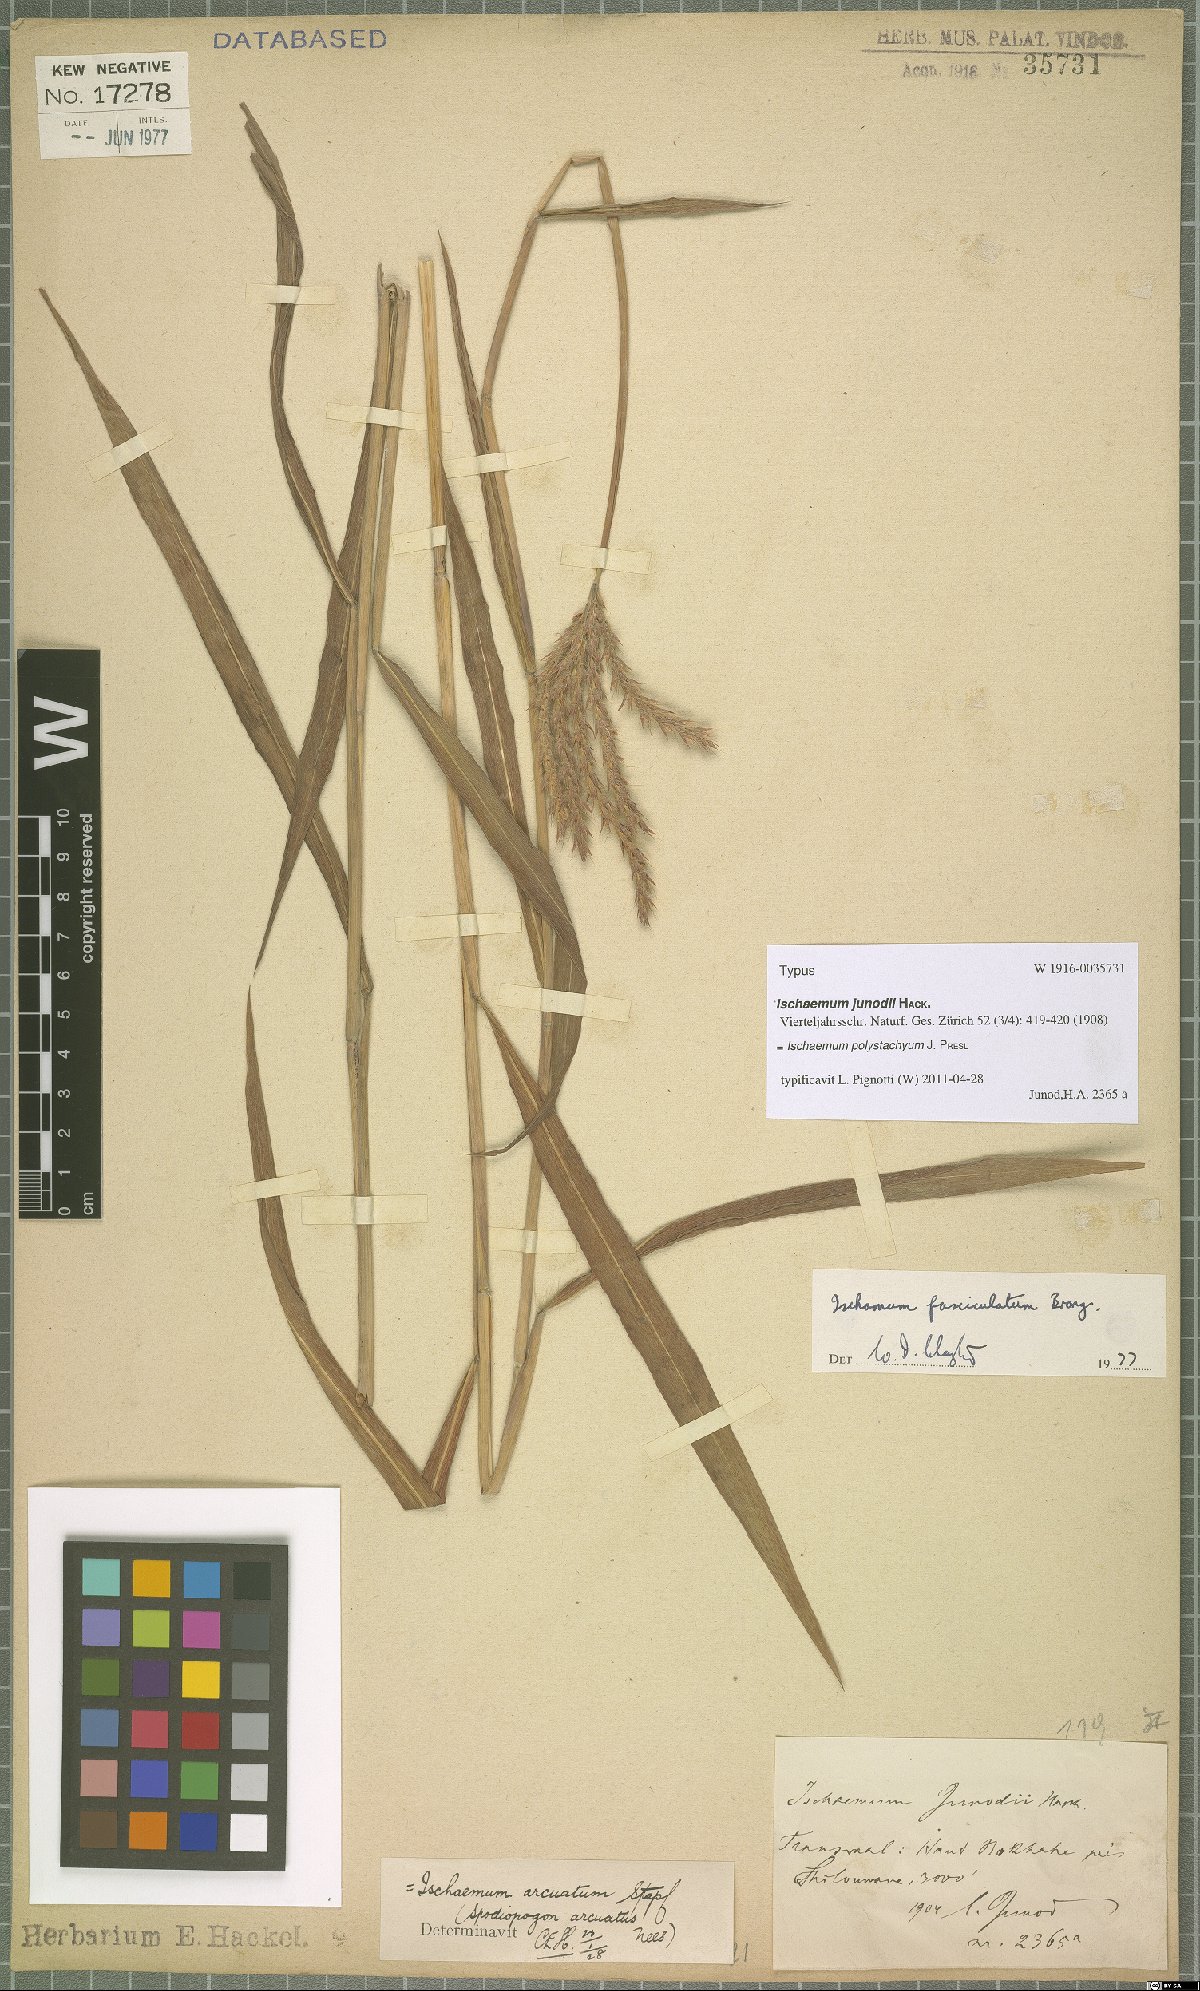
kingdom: Plantae
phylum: Tracheophyta
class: Liliopsida
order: Poales
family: Poaceae
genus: Ischaemum
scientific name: Ischaemum polystachyum
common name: Paddle grass
